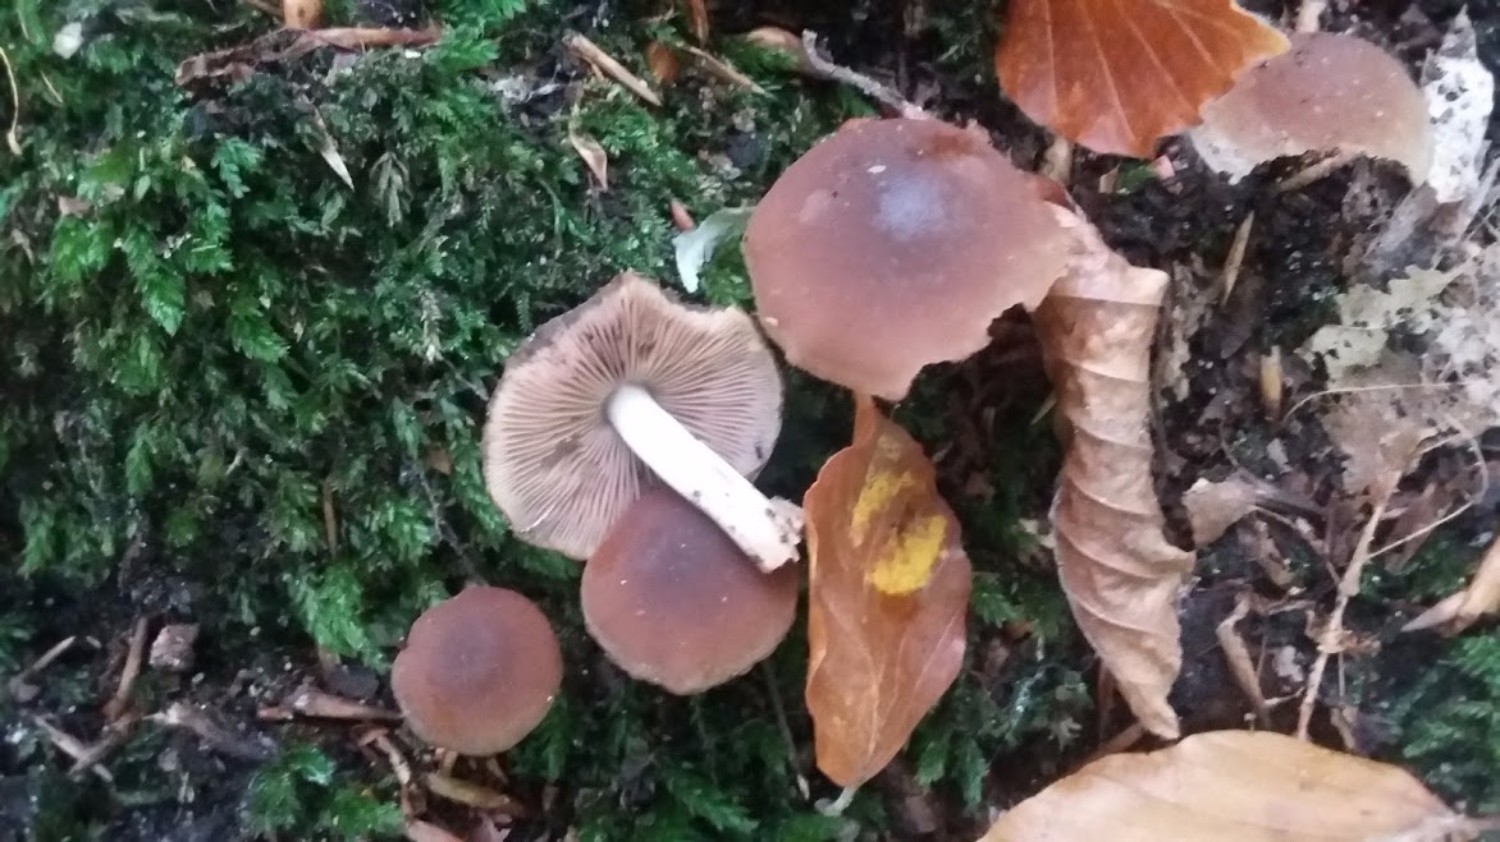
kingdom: Fungi
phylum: Basidiomycota
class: Agaricomycetes
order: Agaricales
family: Psathyrellaceae
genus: Psathyrella
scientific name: Psathyrella piluliformis
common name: lysstokket mørkhat
